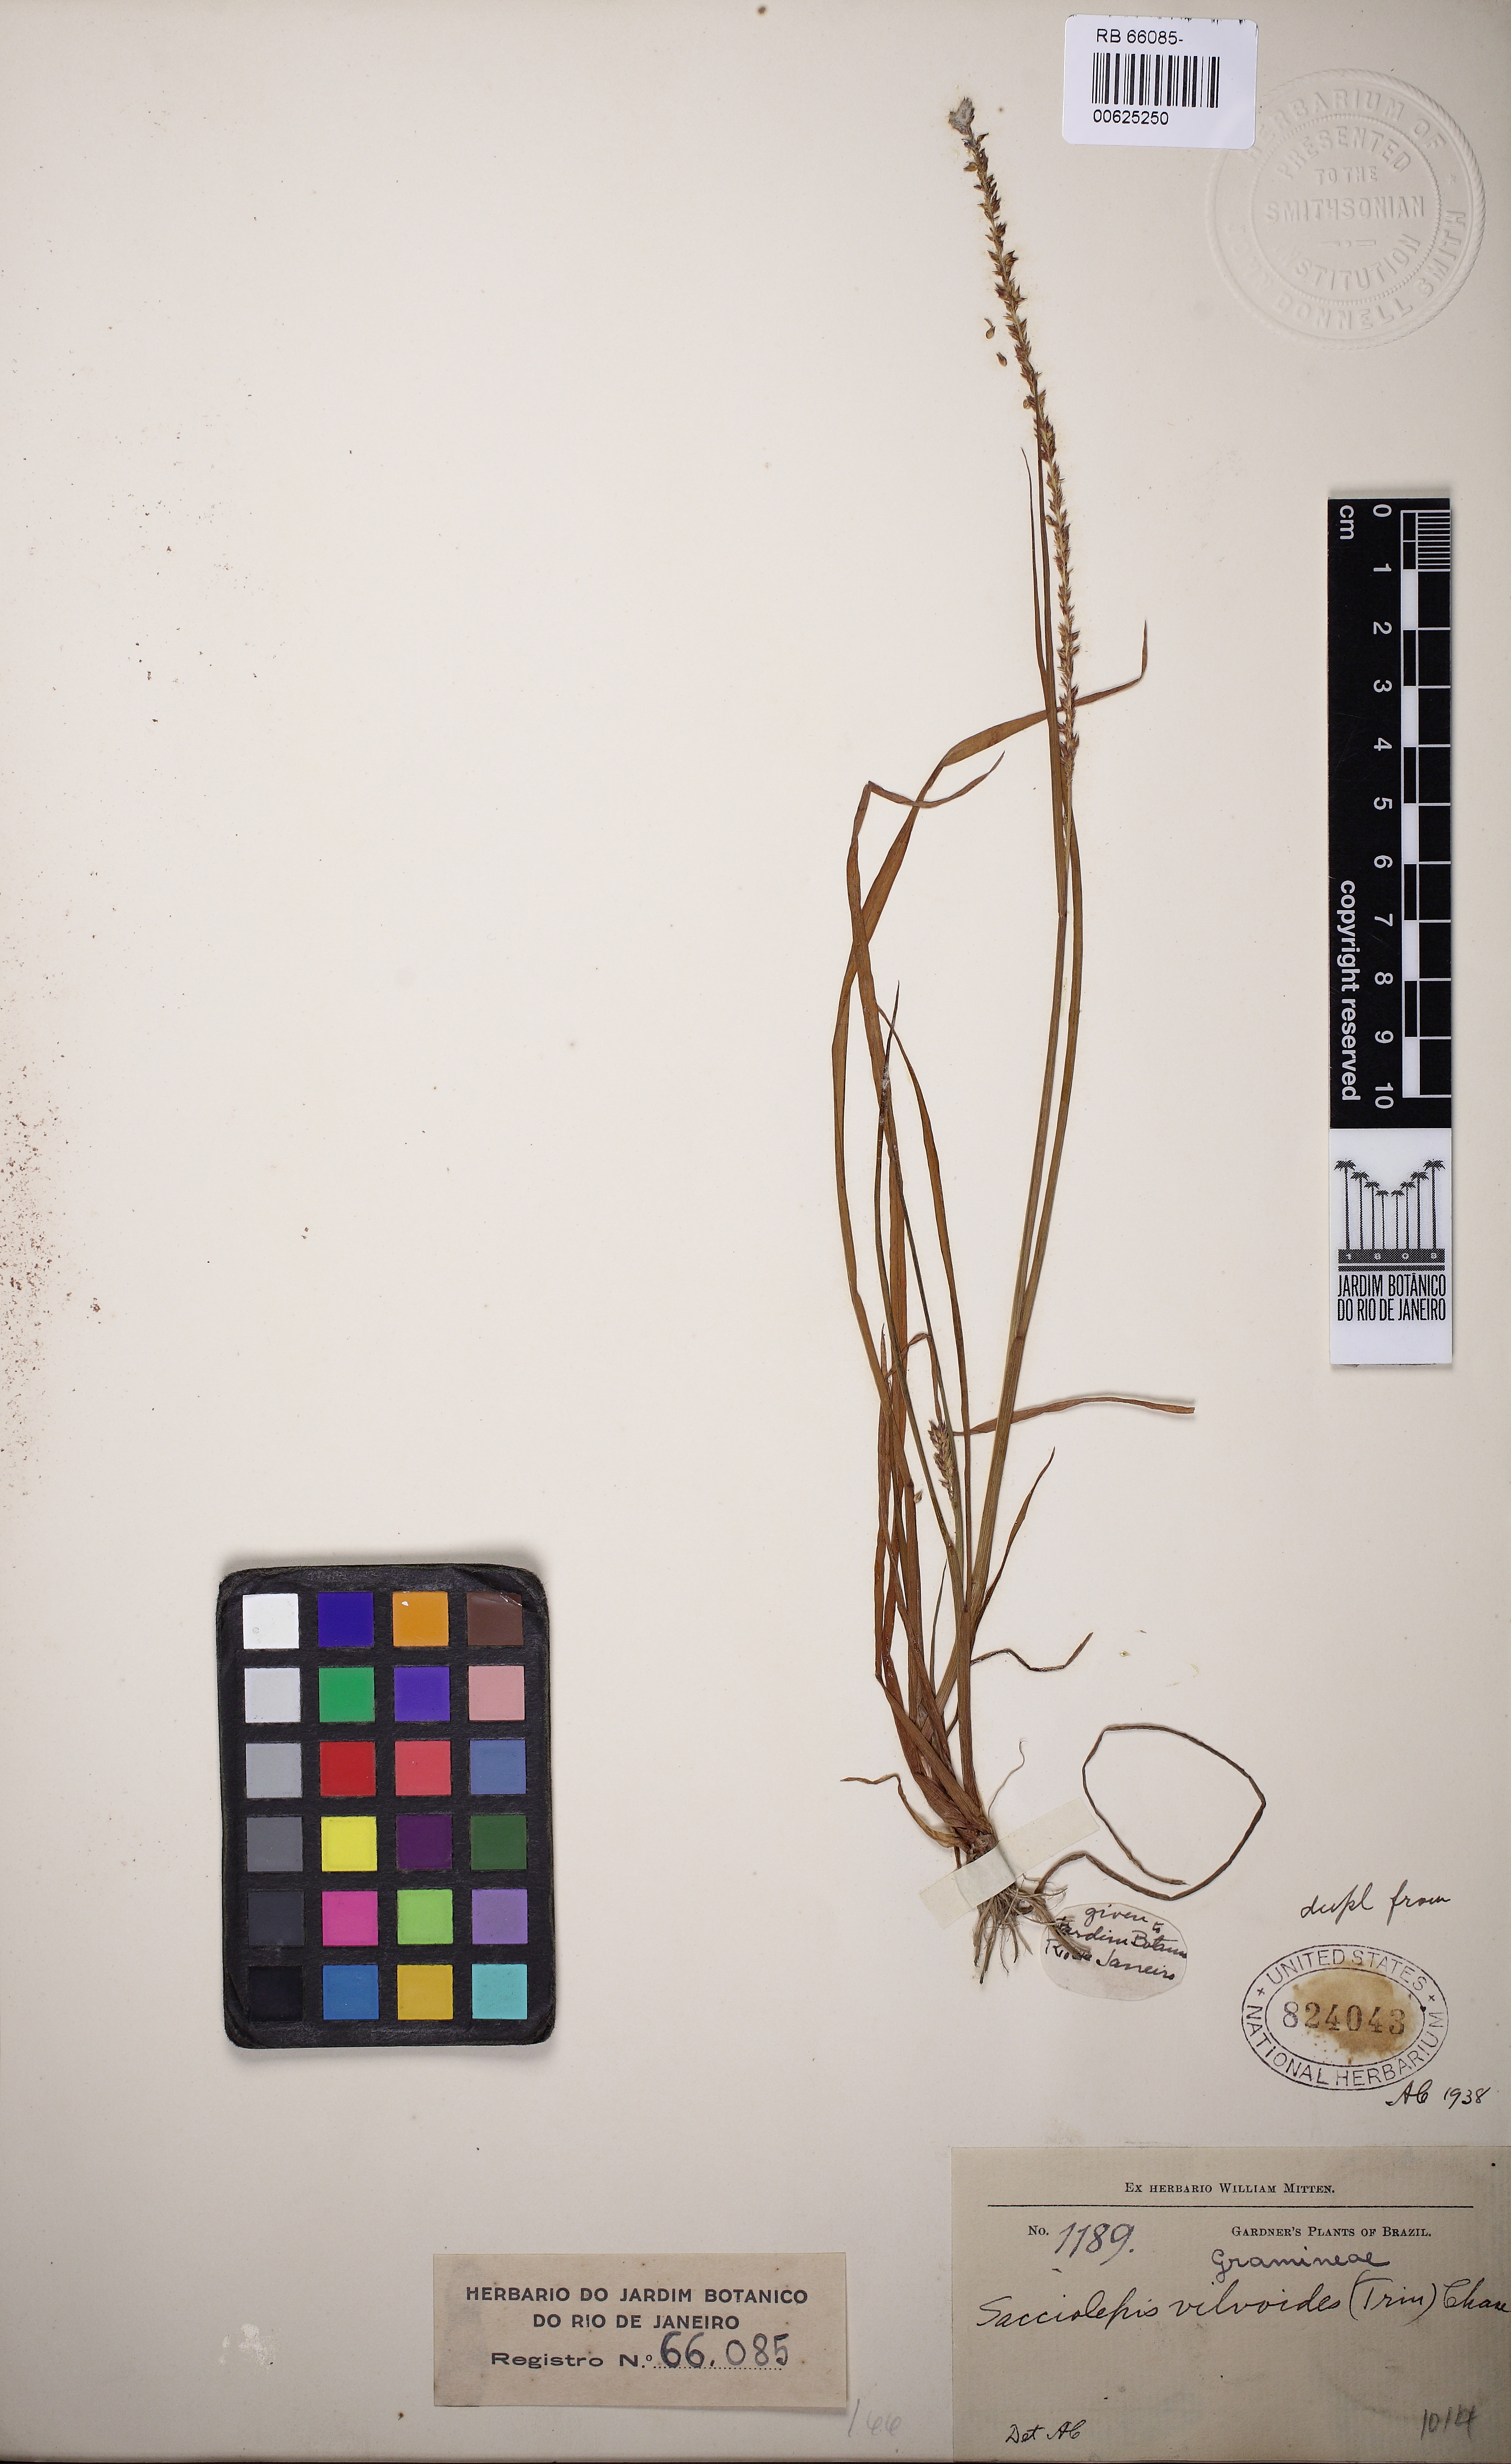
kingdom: Plantae
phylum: Tracheophyta
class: Liliopsida
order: Poales
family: Poaceae
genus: Sacciolepis
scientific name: Sacciolepis vilvoides
